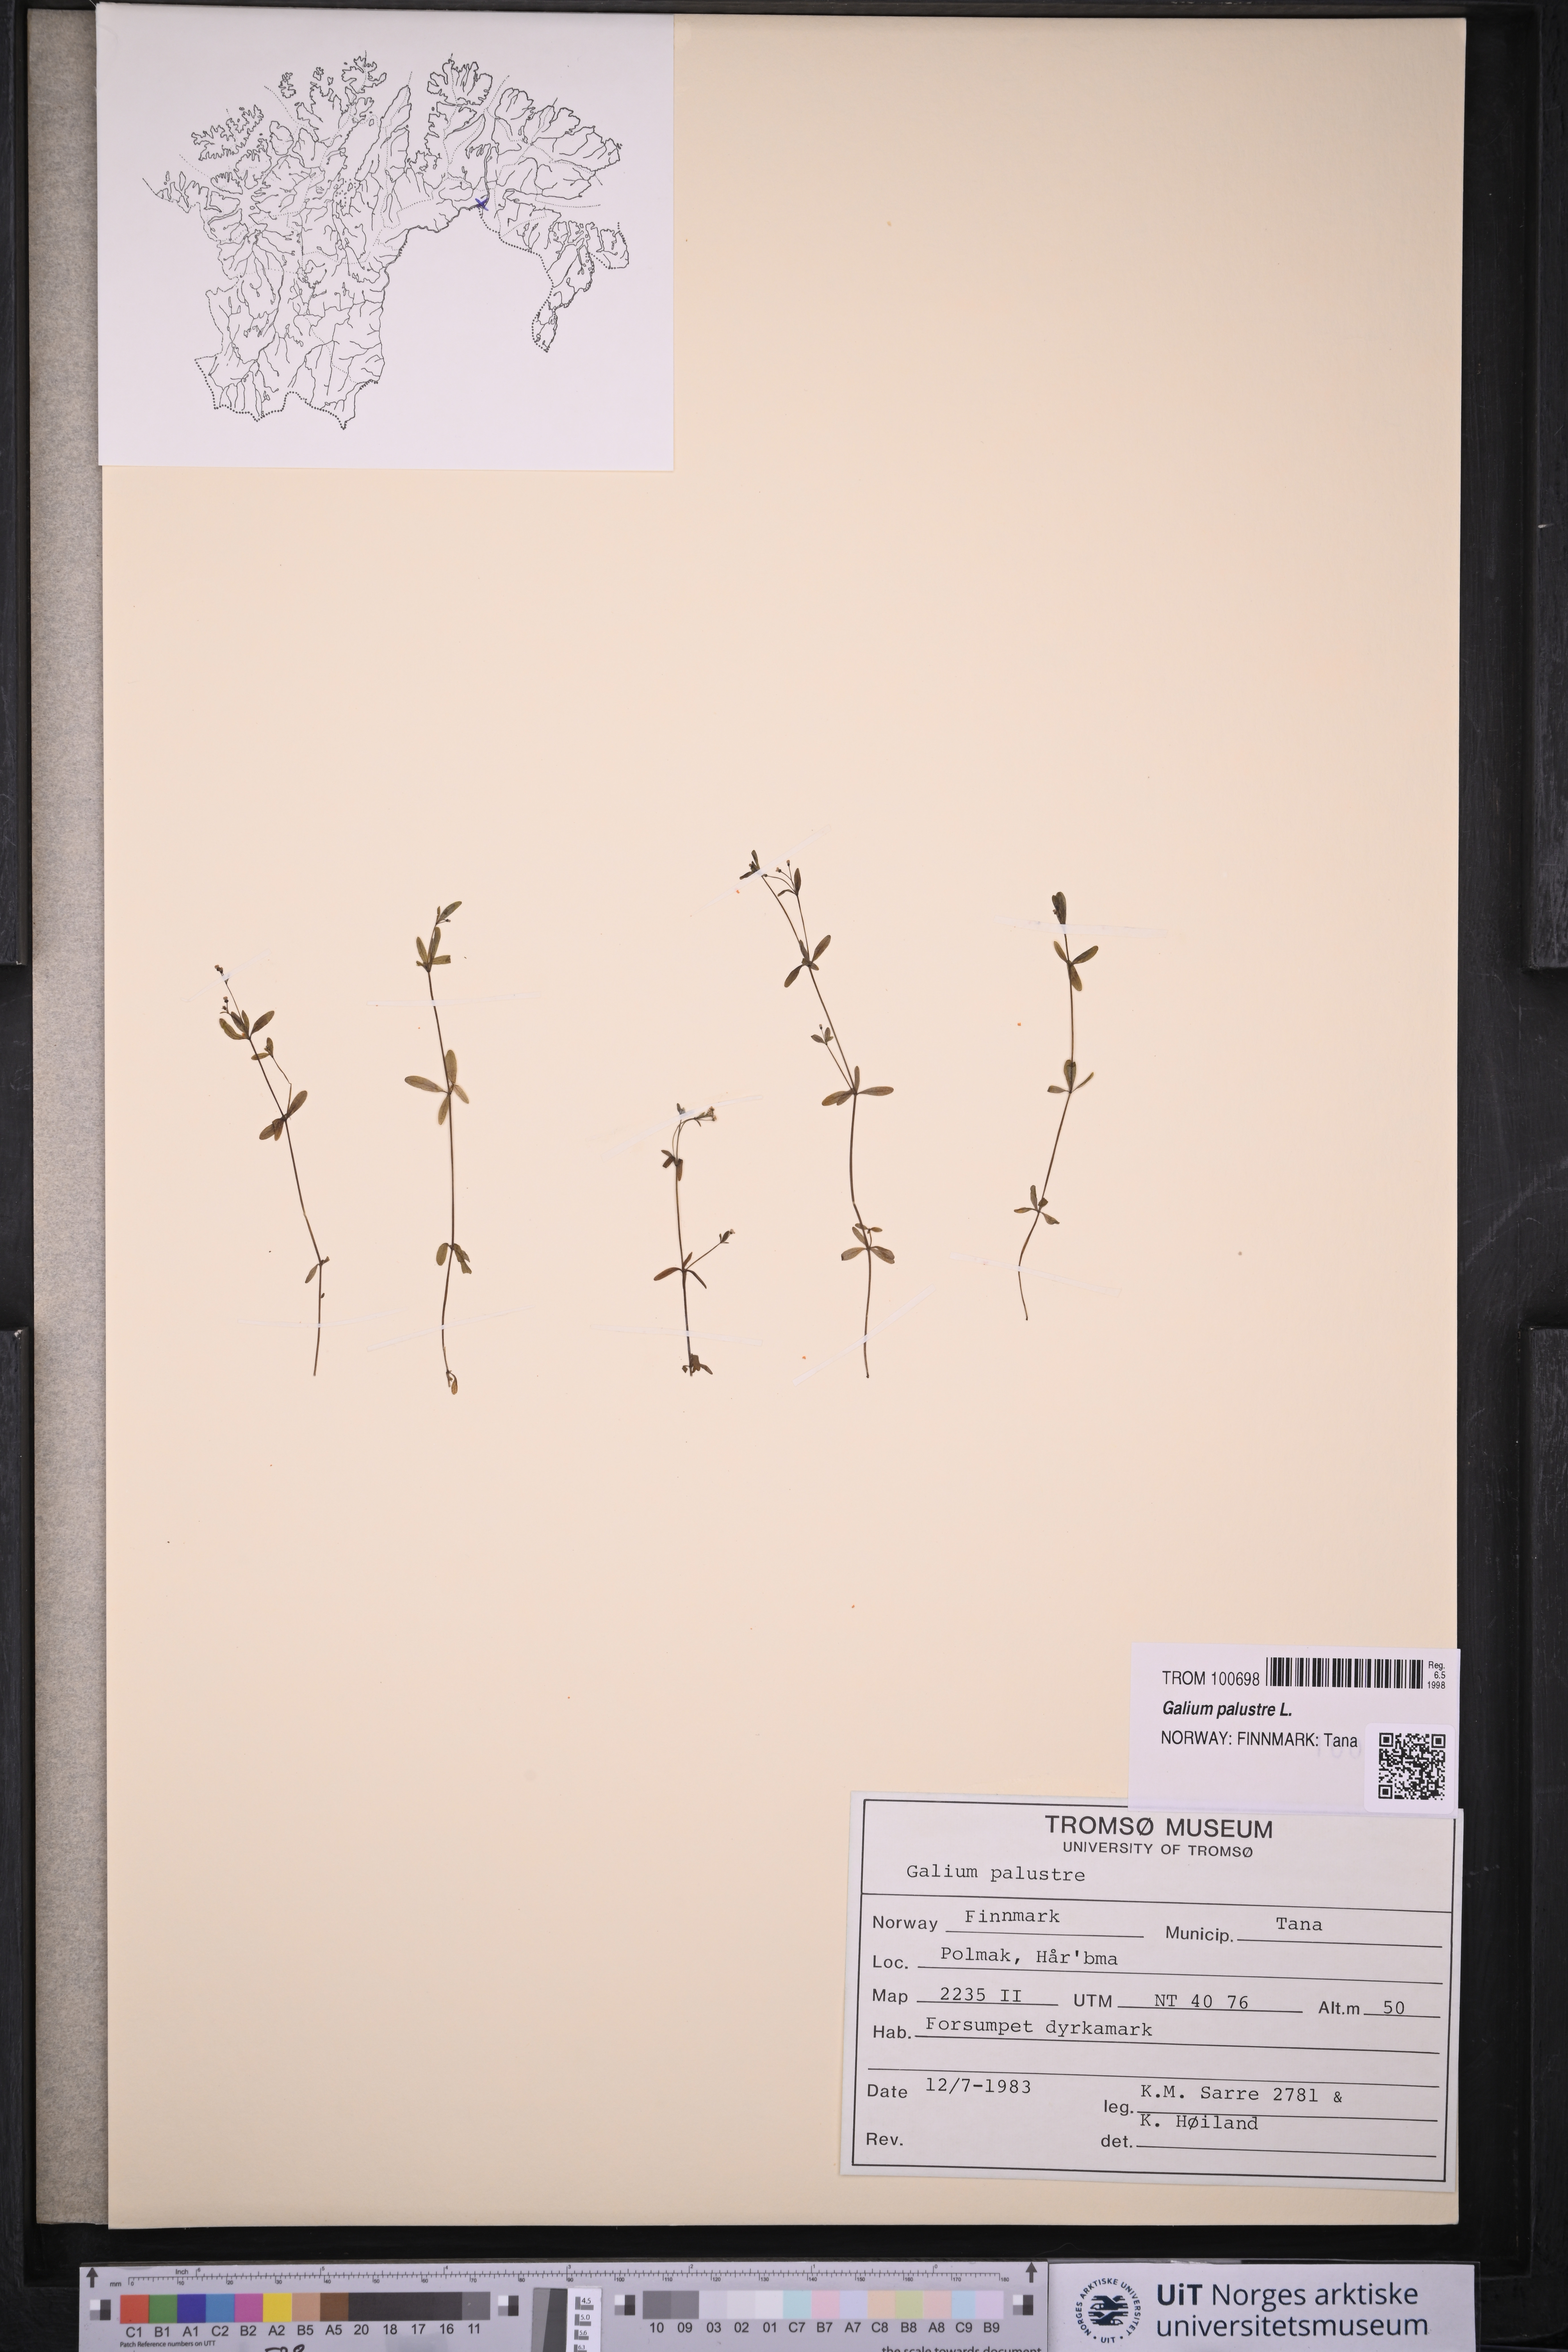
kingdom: Plantae
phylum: Tracheophyta
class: Magnoliopsida
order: Gentianales
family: Rubiaceae
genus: Galium
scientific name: Galium palustre
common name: Common marsh-bedstraw
